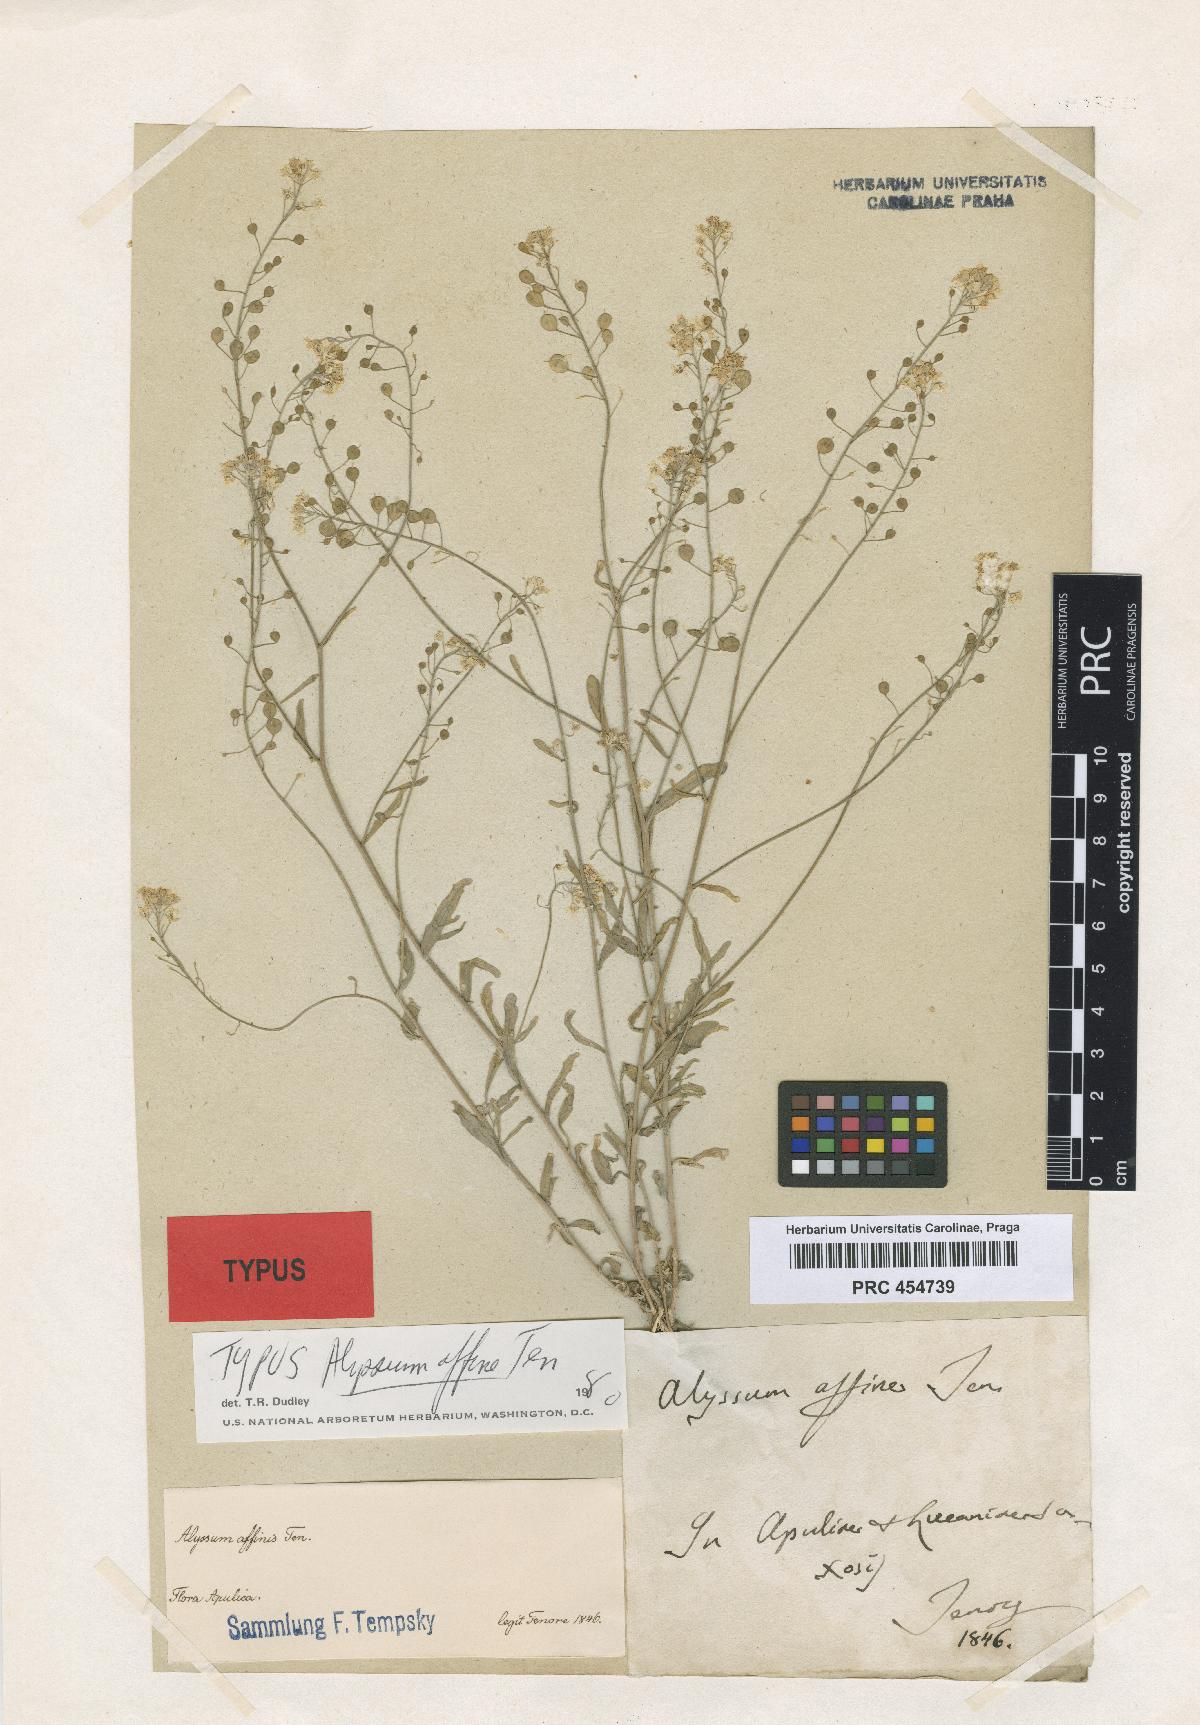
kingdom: Plantae
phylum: Tracheophyta
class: Magnoliopsida
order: Brassicales
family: Brassicaceae
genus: Aurinia
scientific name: Aurinia saxatilis
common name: Golden-tuft alyssum
